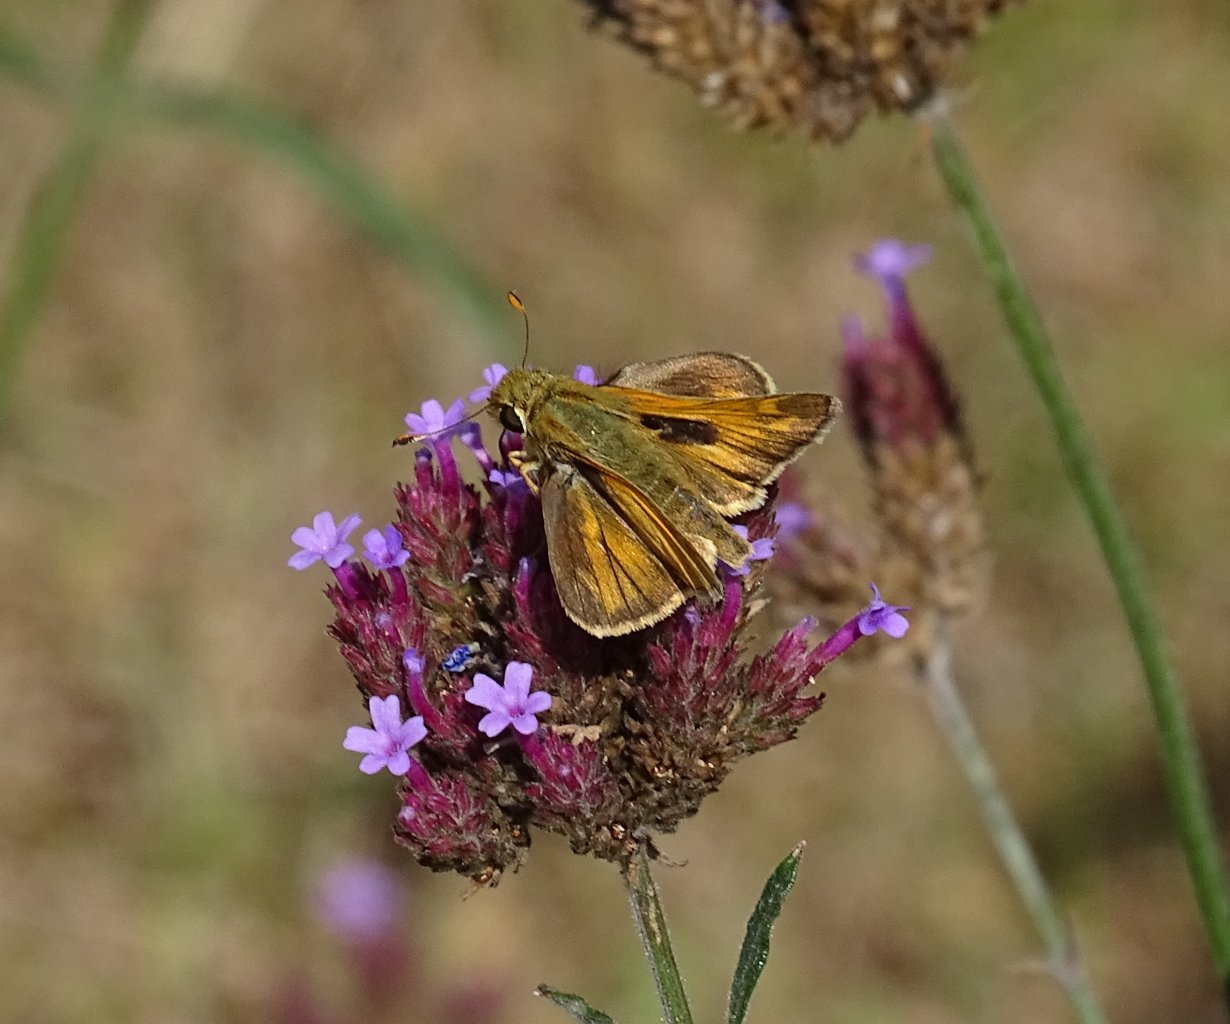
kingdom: Animalia
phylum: Arthropoda
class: Insecta
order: Lepidoptera
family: Hesperiidae
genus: Atalopedes
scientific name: Atalopedes campestris
